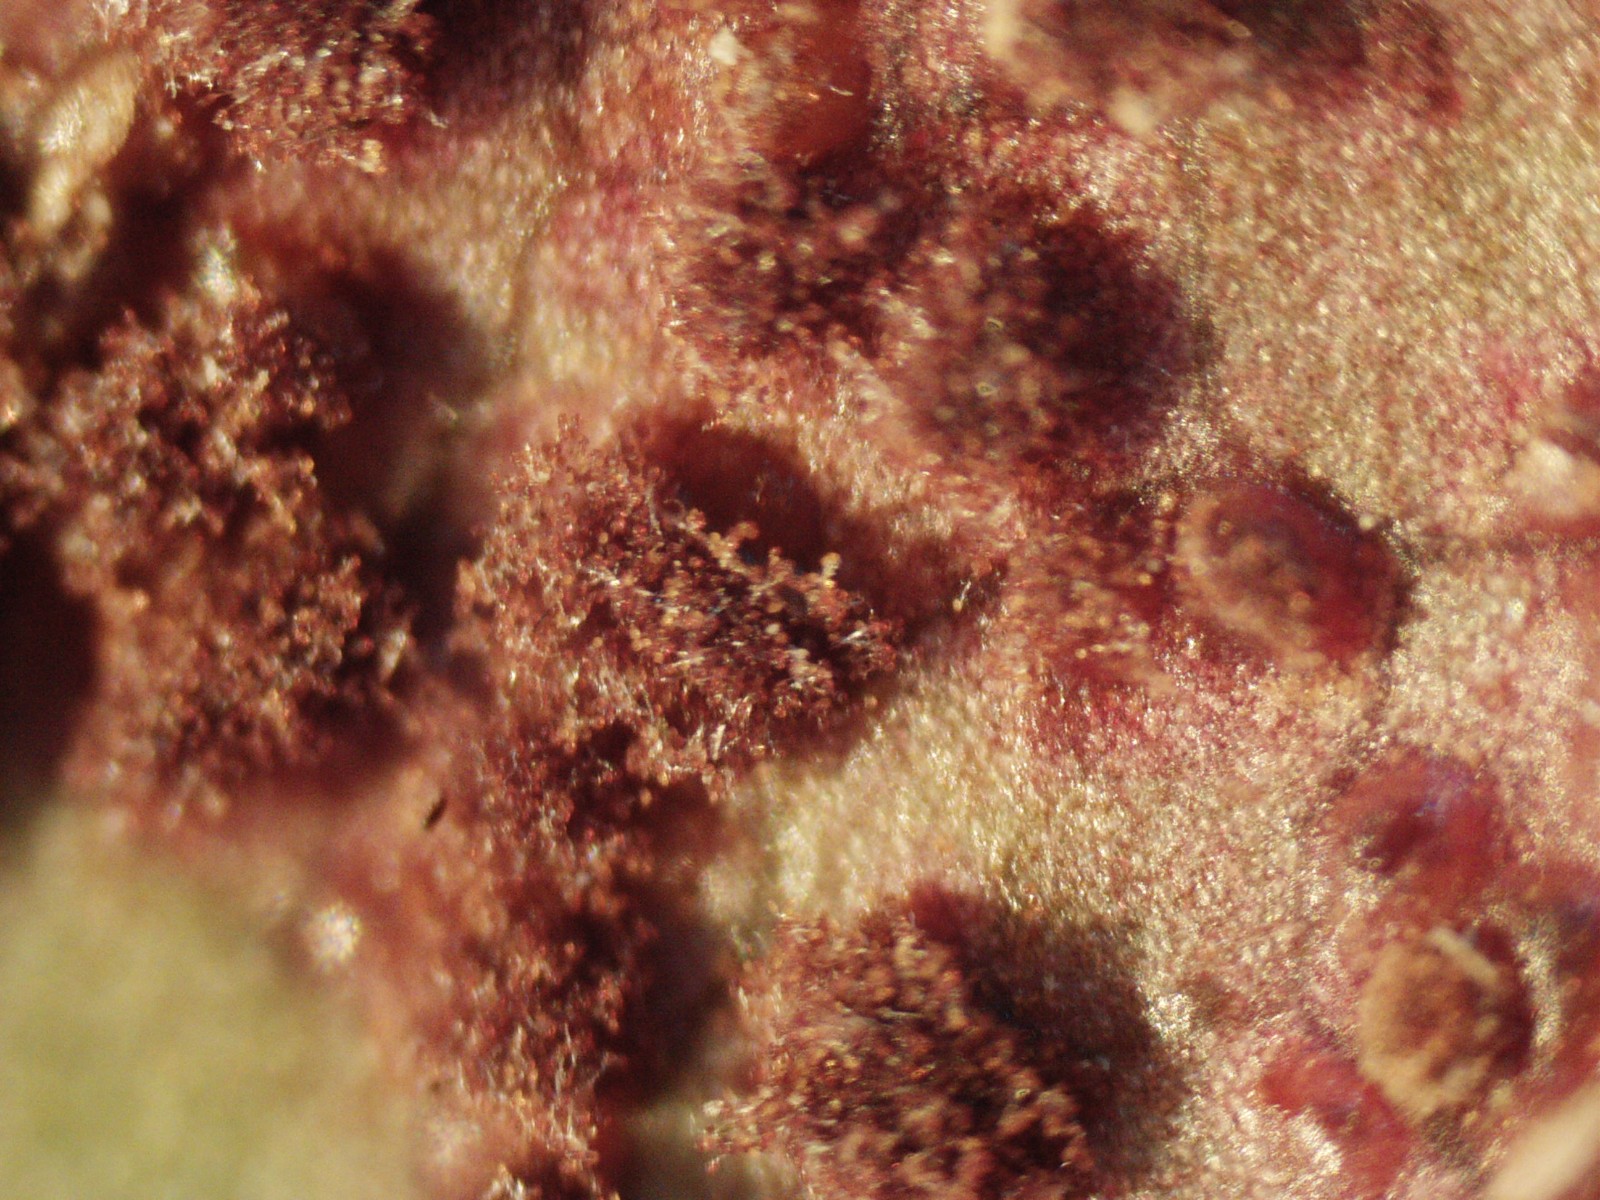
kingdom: Fungi
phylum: Basidiomycota
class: Pucciniomycetes
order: Pucciniales
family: Pucciniaceae
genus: Cumminsiella
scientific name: Cumminsiella mirabilissima
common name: mahonierust
